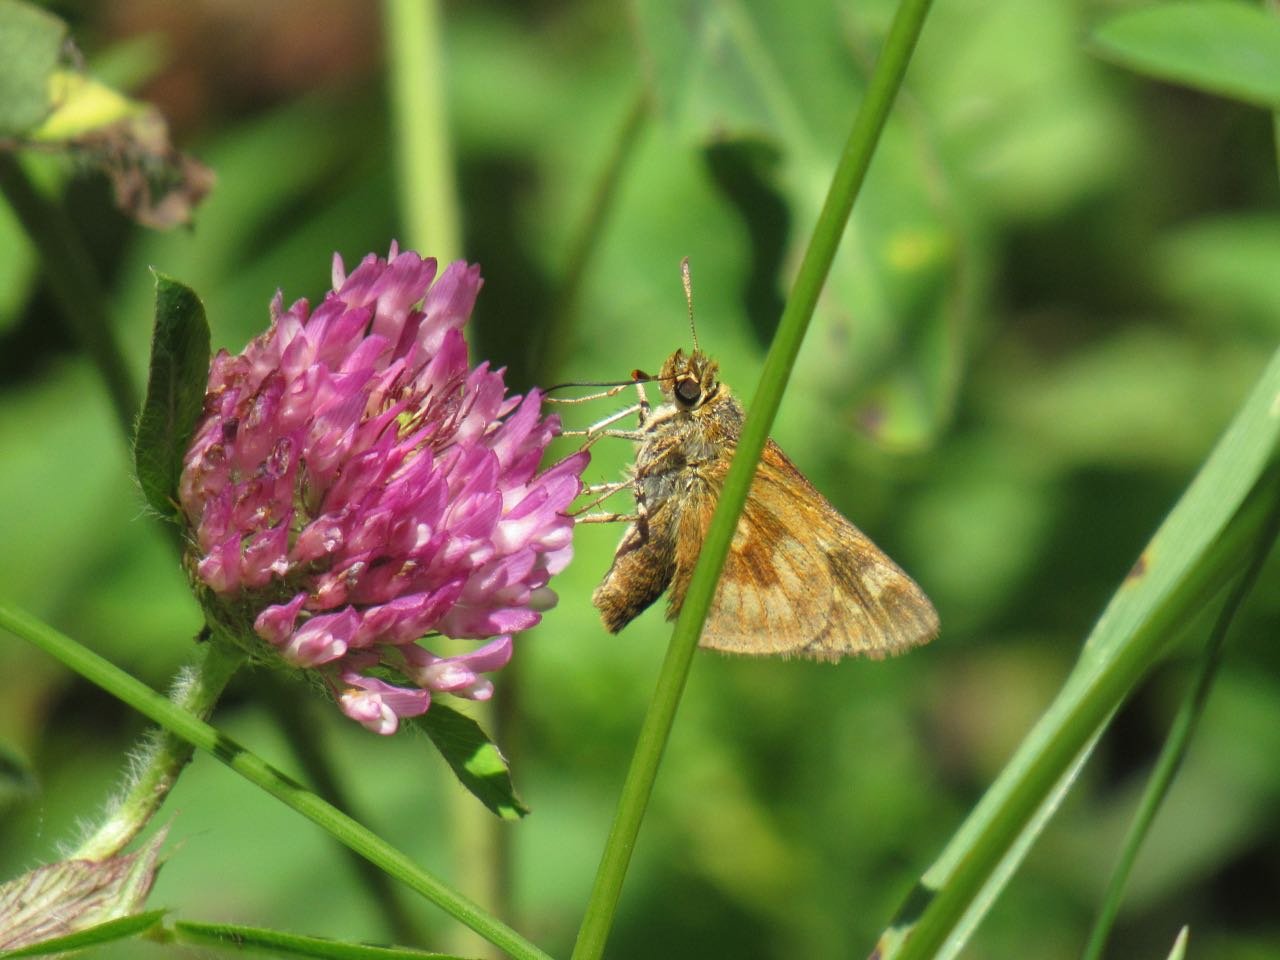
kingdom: Animalia
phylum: Arthropoda
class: Insecta
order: Lepidoptera
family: Hesperiidae
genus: Polites
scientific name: Polites
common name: Long Dash Skipper
